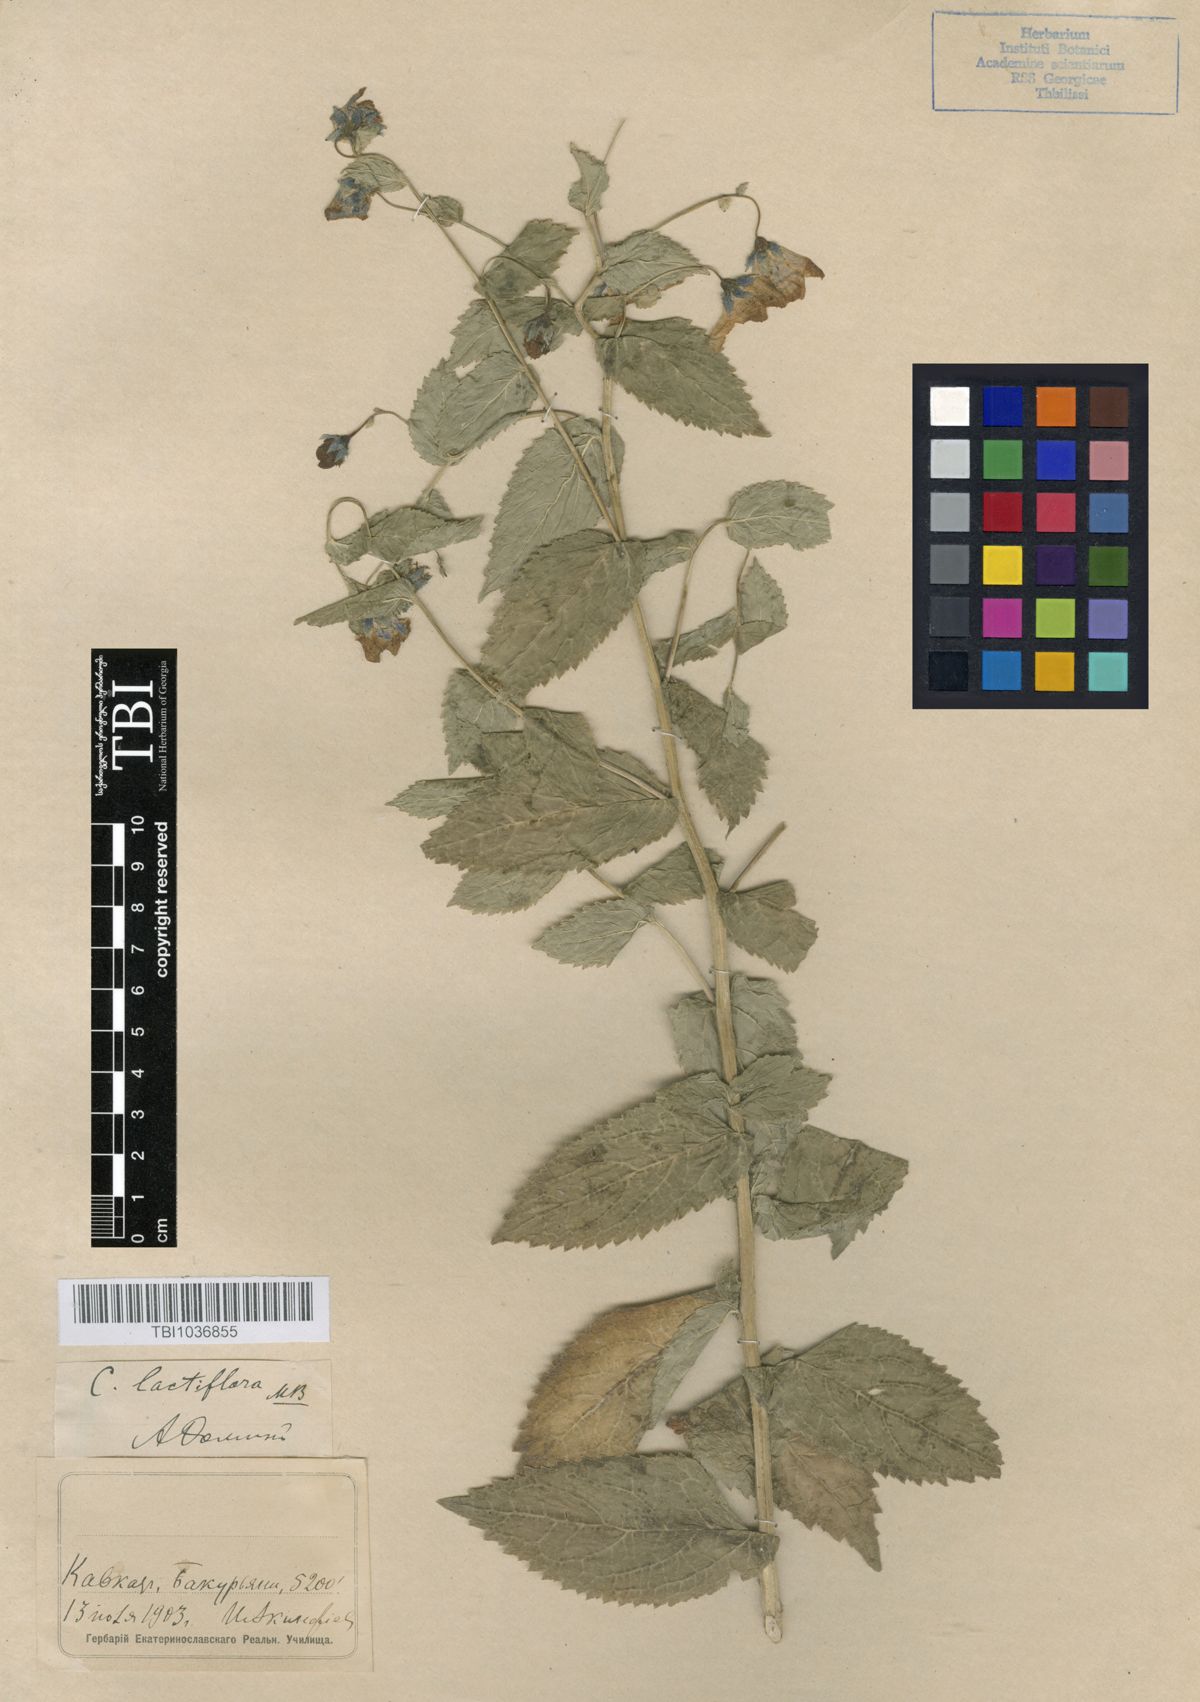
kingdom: Plantae
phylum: Tracheophyta
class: Magnoliopsida
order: Asterales
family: Campanulaceae
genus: Campanula
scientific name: Campanula lactiflora
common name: Milky bellflower
